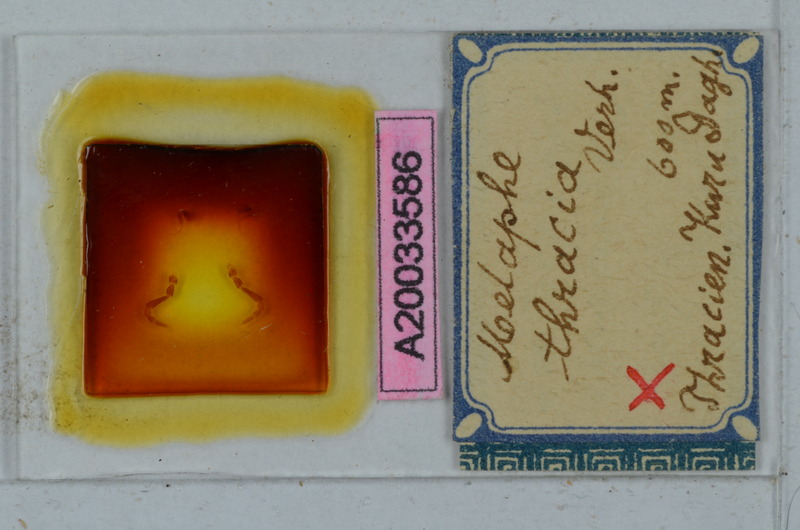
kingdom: Animalia
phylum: Arthropoda
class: Diplopoda
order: Polydesmida
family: Xystodesmidae
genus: Melaphe
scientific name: Melaphe vestita
